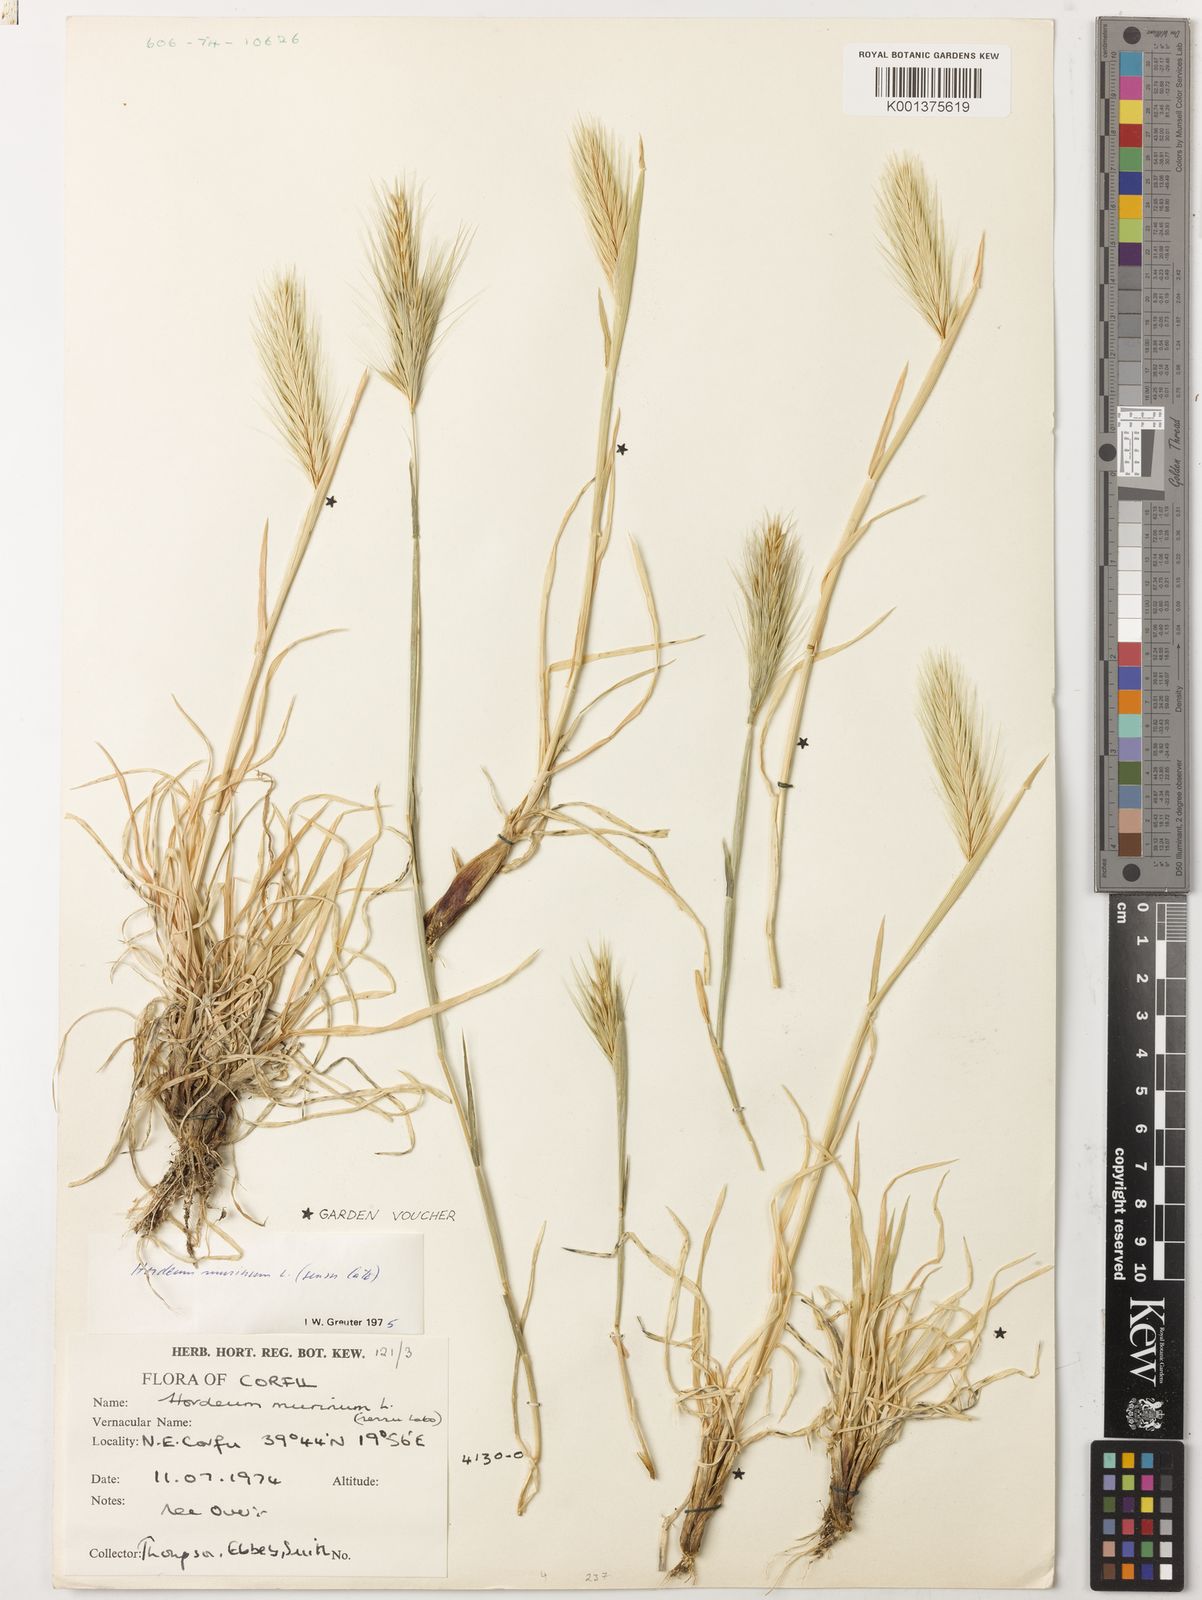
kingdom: Plantae
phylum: Tracheophyta
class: Liliopsida
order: Poales
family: Poaceae
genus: Hordeum
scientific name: Hordeum murinum
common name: Wall barley
